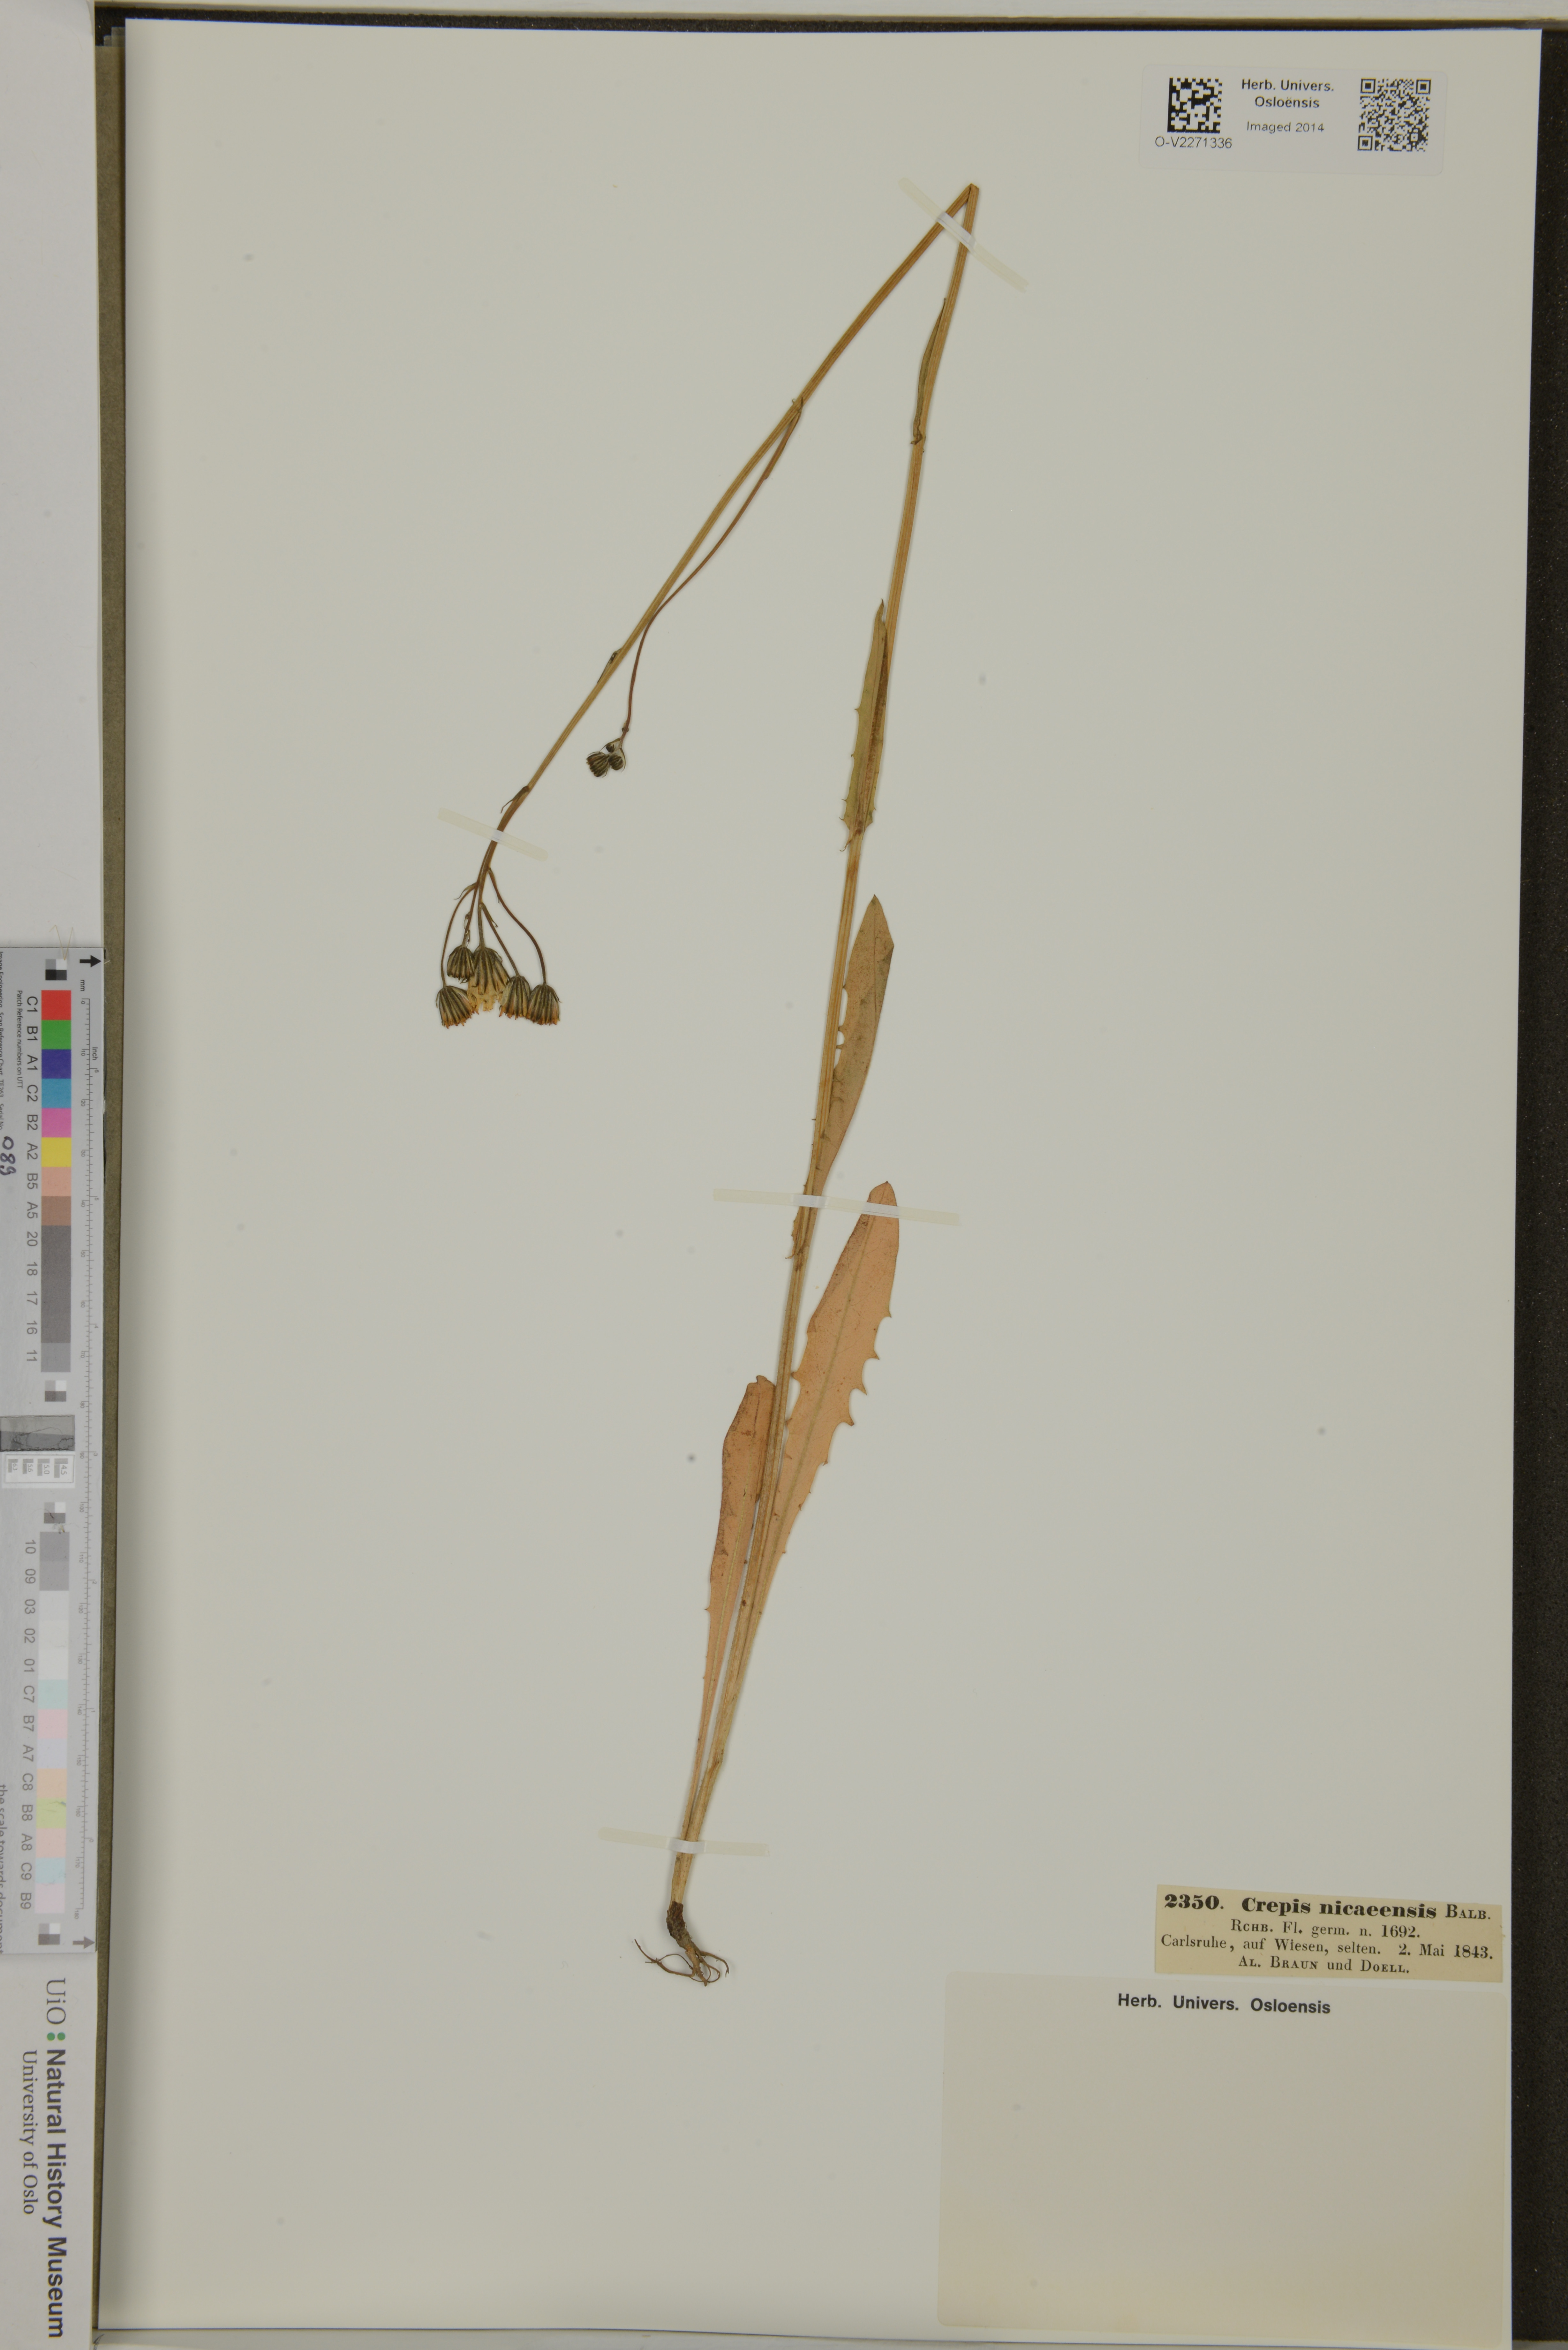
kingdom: Plantae
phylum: Tracheophyta
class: Magnoliopsida
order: Asterales
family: Asteraceae
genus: Crepis
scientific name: Crepis nicaeensis
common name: Turkish hawksbeard
